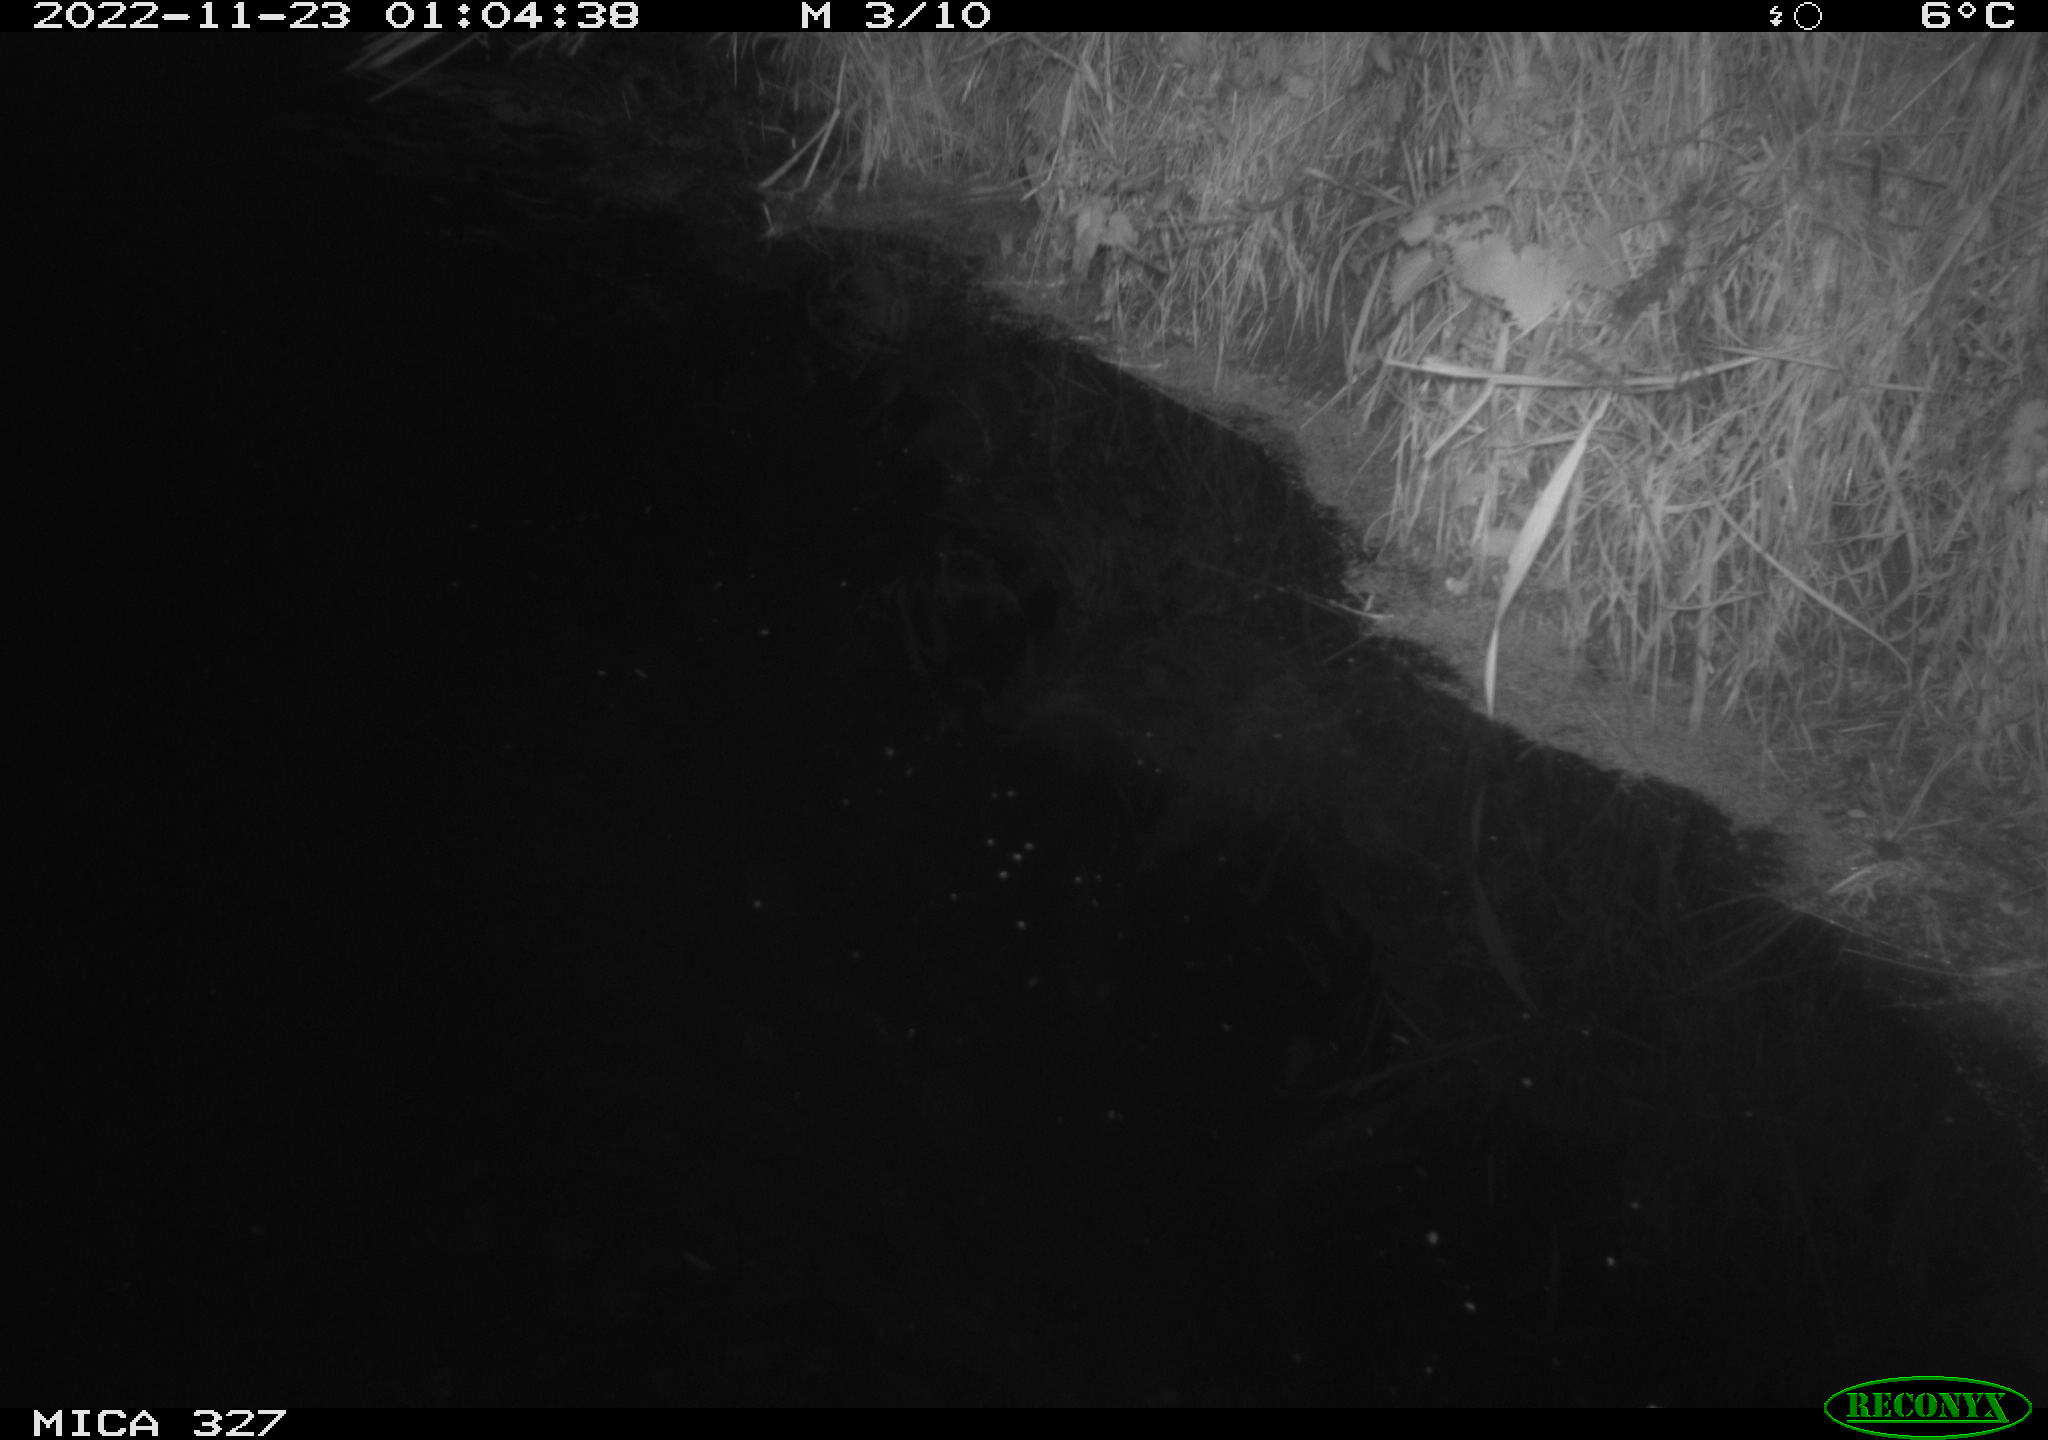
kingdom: Animalia
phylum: Chordata
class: Mammalia
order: Rodentia
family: Cricetidae
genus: Ondatra
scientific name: Ondatra zibethicus
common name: Muskrat
